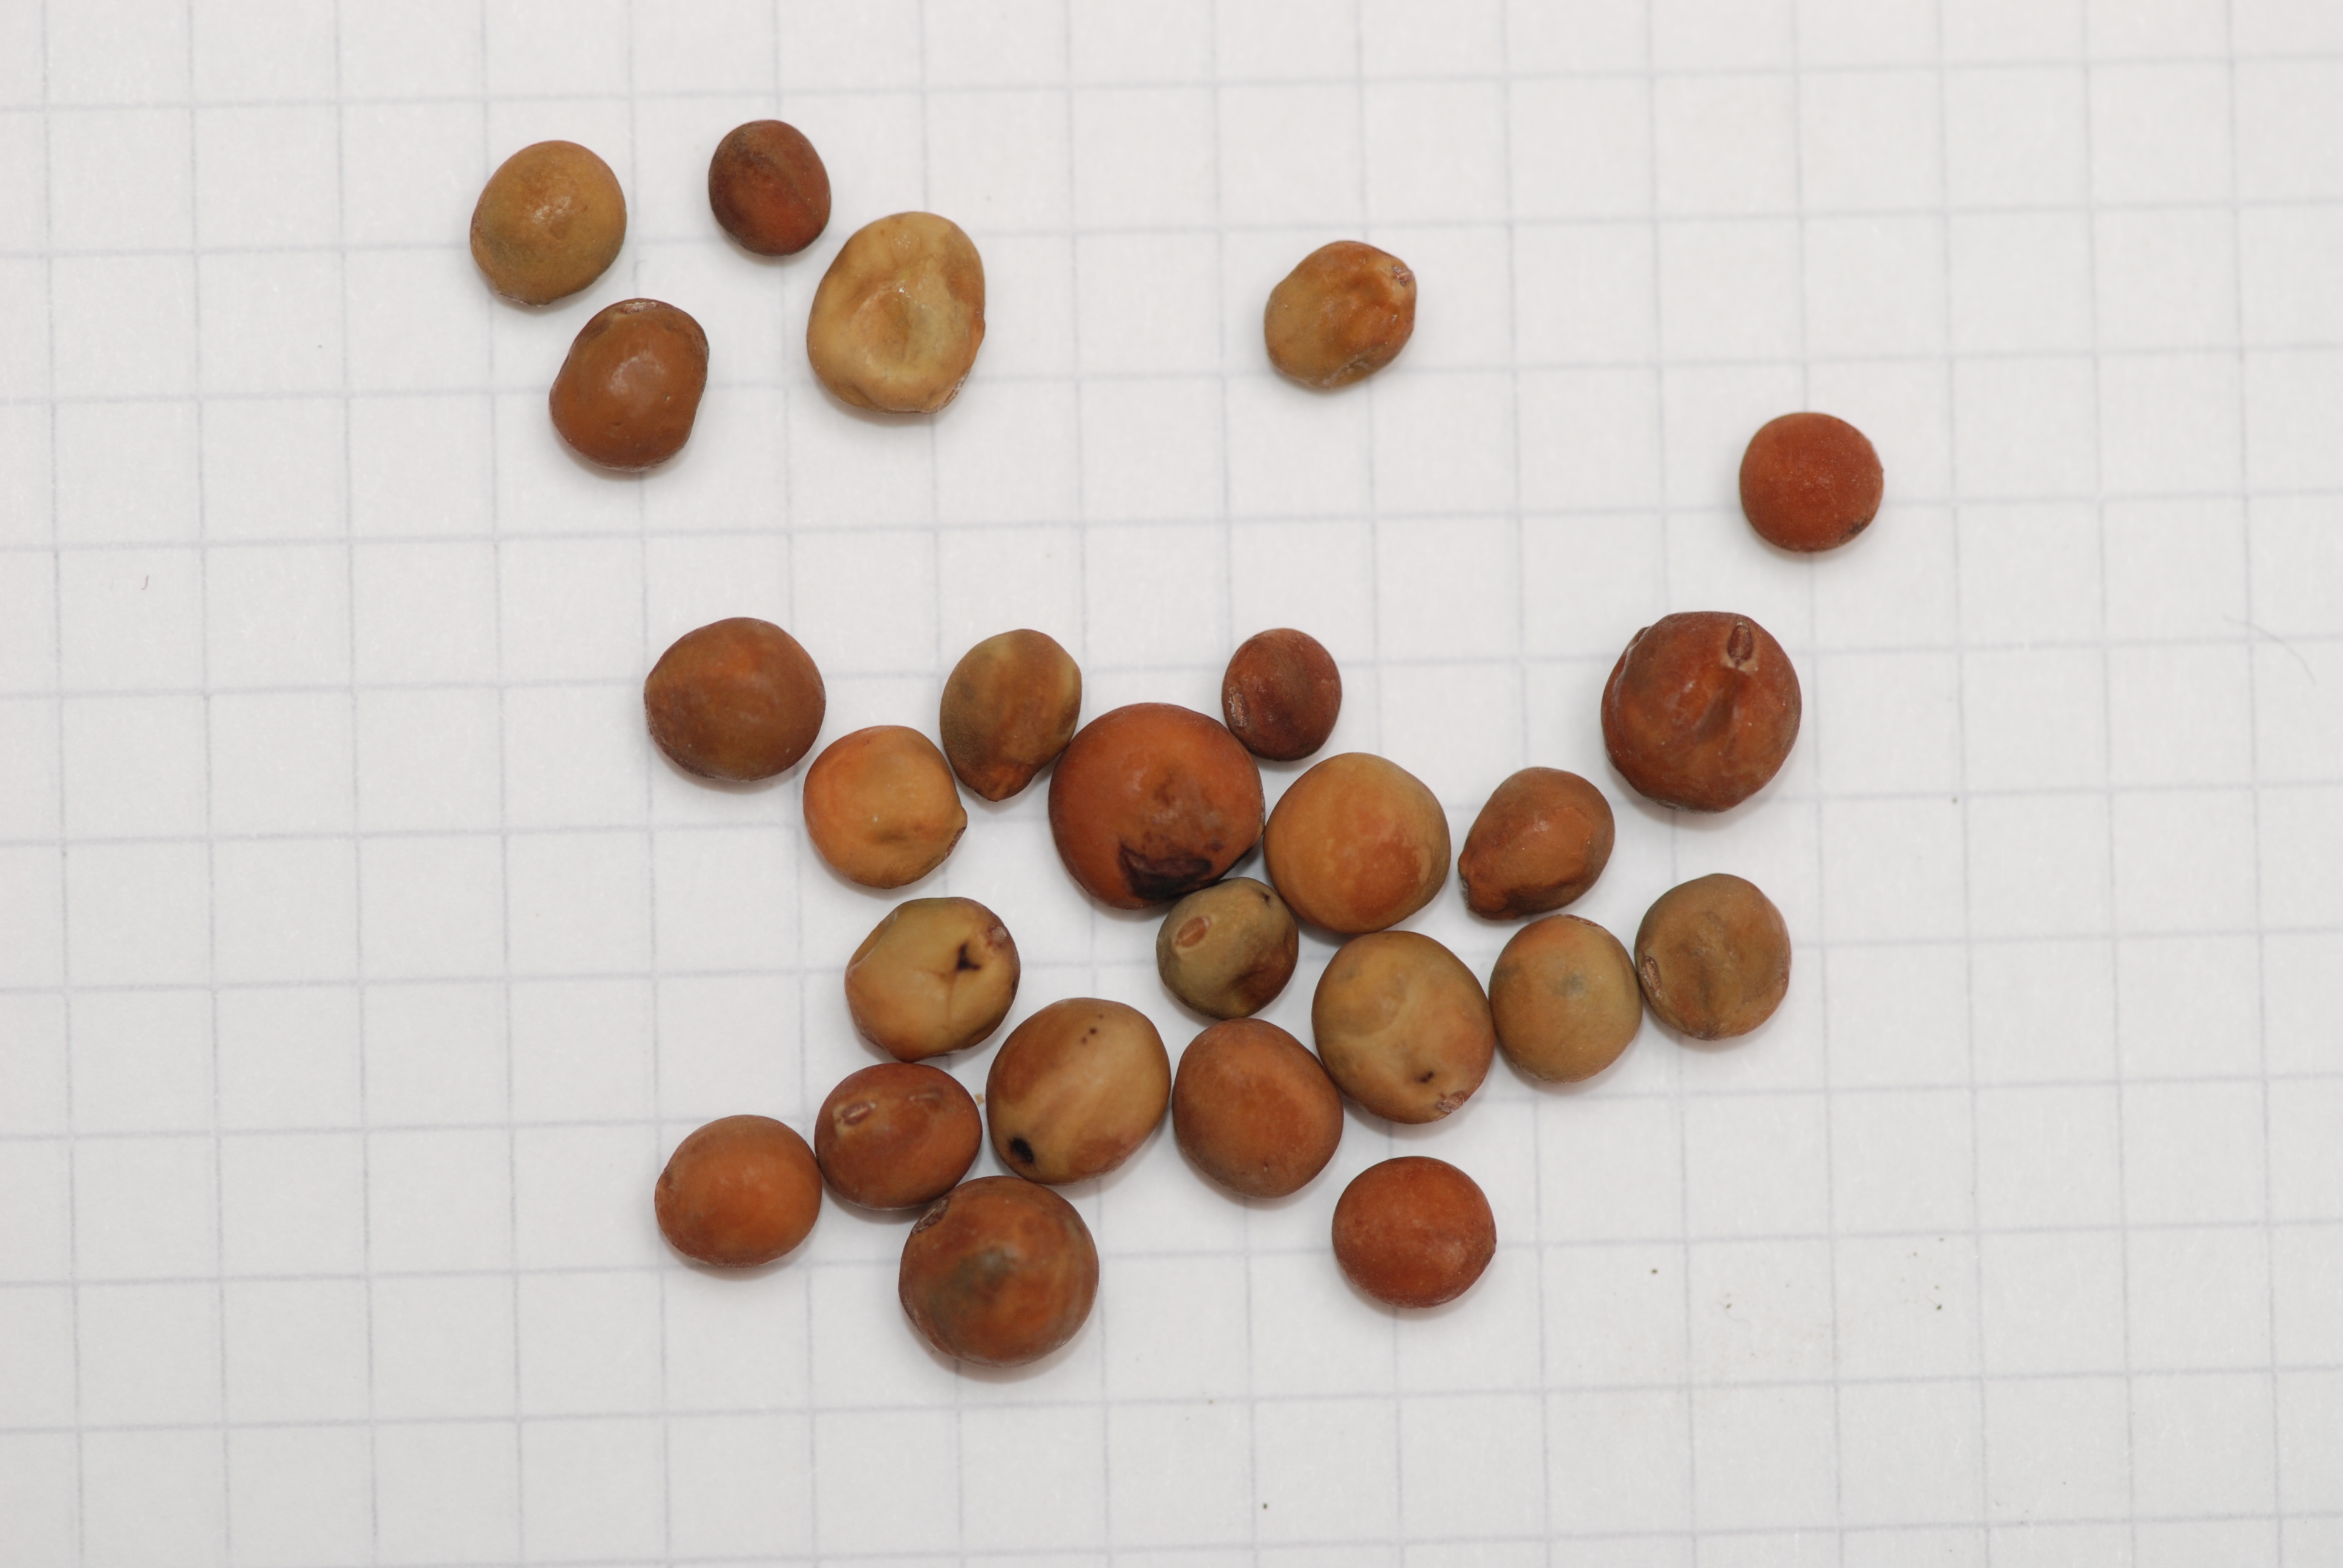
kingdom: Plantae
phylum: Tracheophyta
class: Magnoliopsida
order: Fabales
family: Fabaceae
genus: Lathyrus
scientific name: Lathyrus oleraceus
